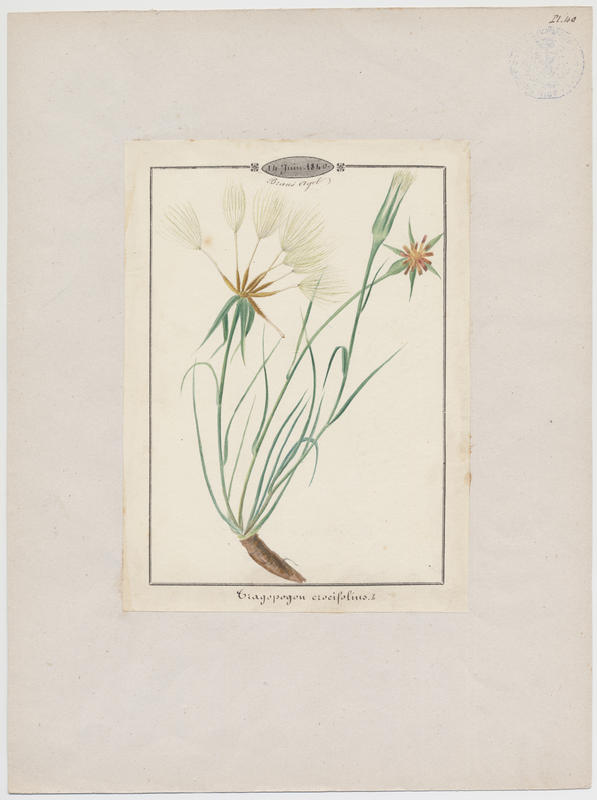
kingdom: Plantae
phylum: Tracheophyta
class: Magnoliopsida
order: Asterales
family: Asteraceae
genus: Tragopogon
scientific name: Tragopogon crocifolius
